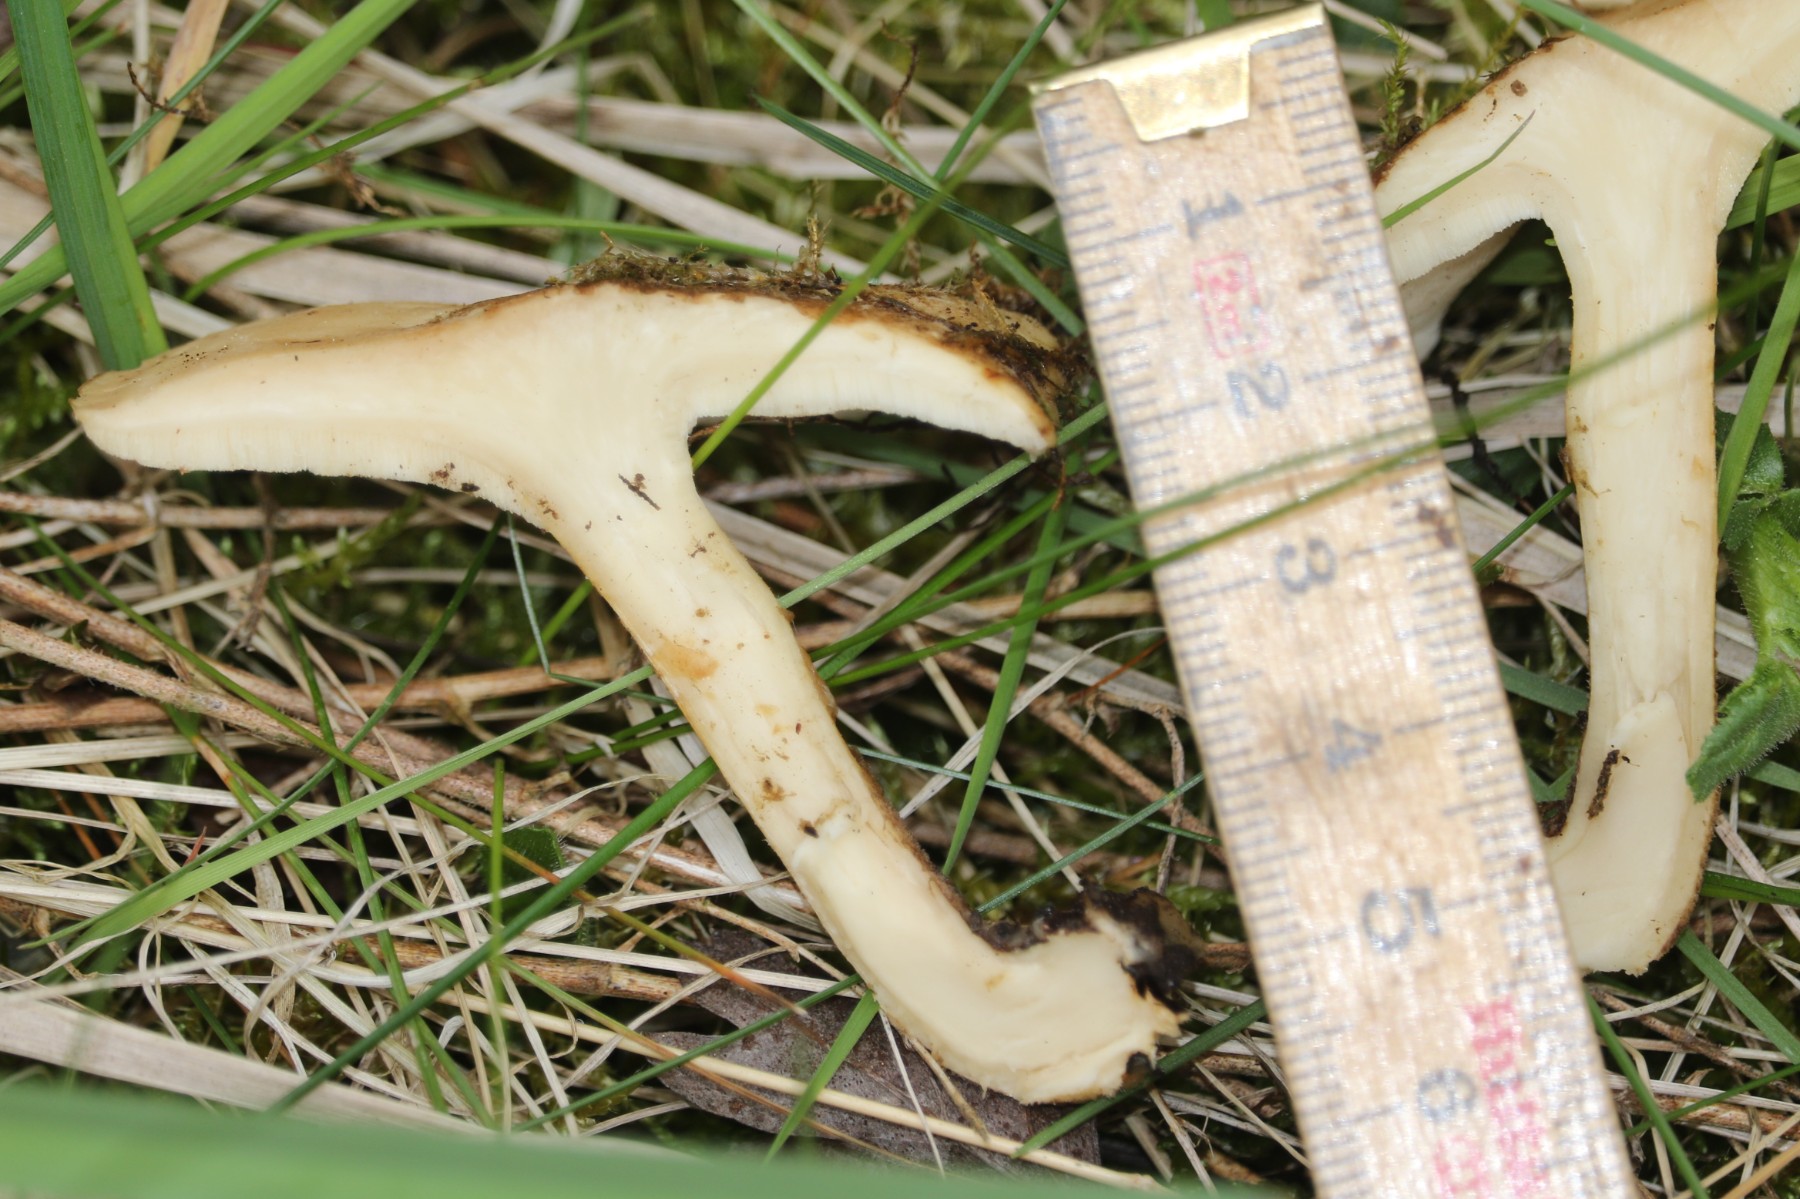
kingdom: Fungi
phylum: Basidiomycota
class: Agaricomycetes
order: Polyporales
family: Polyporaceae
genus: Lentinus
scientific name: Lentinus substrictus
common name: forårs-stilkporesvamp
